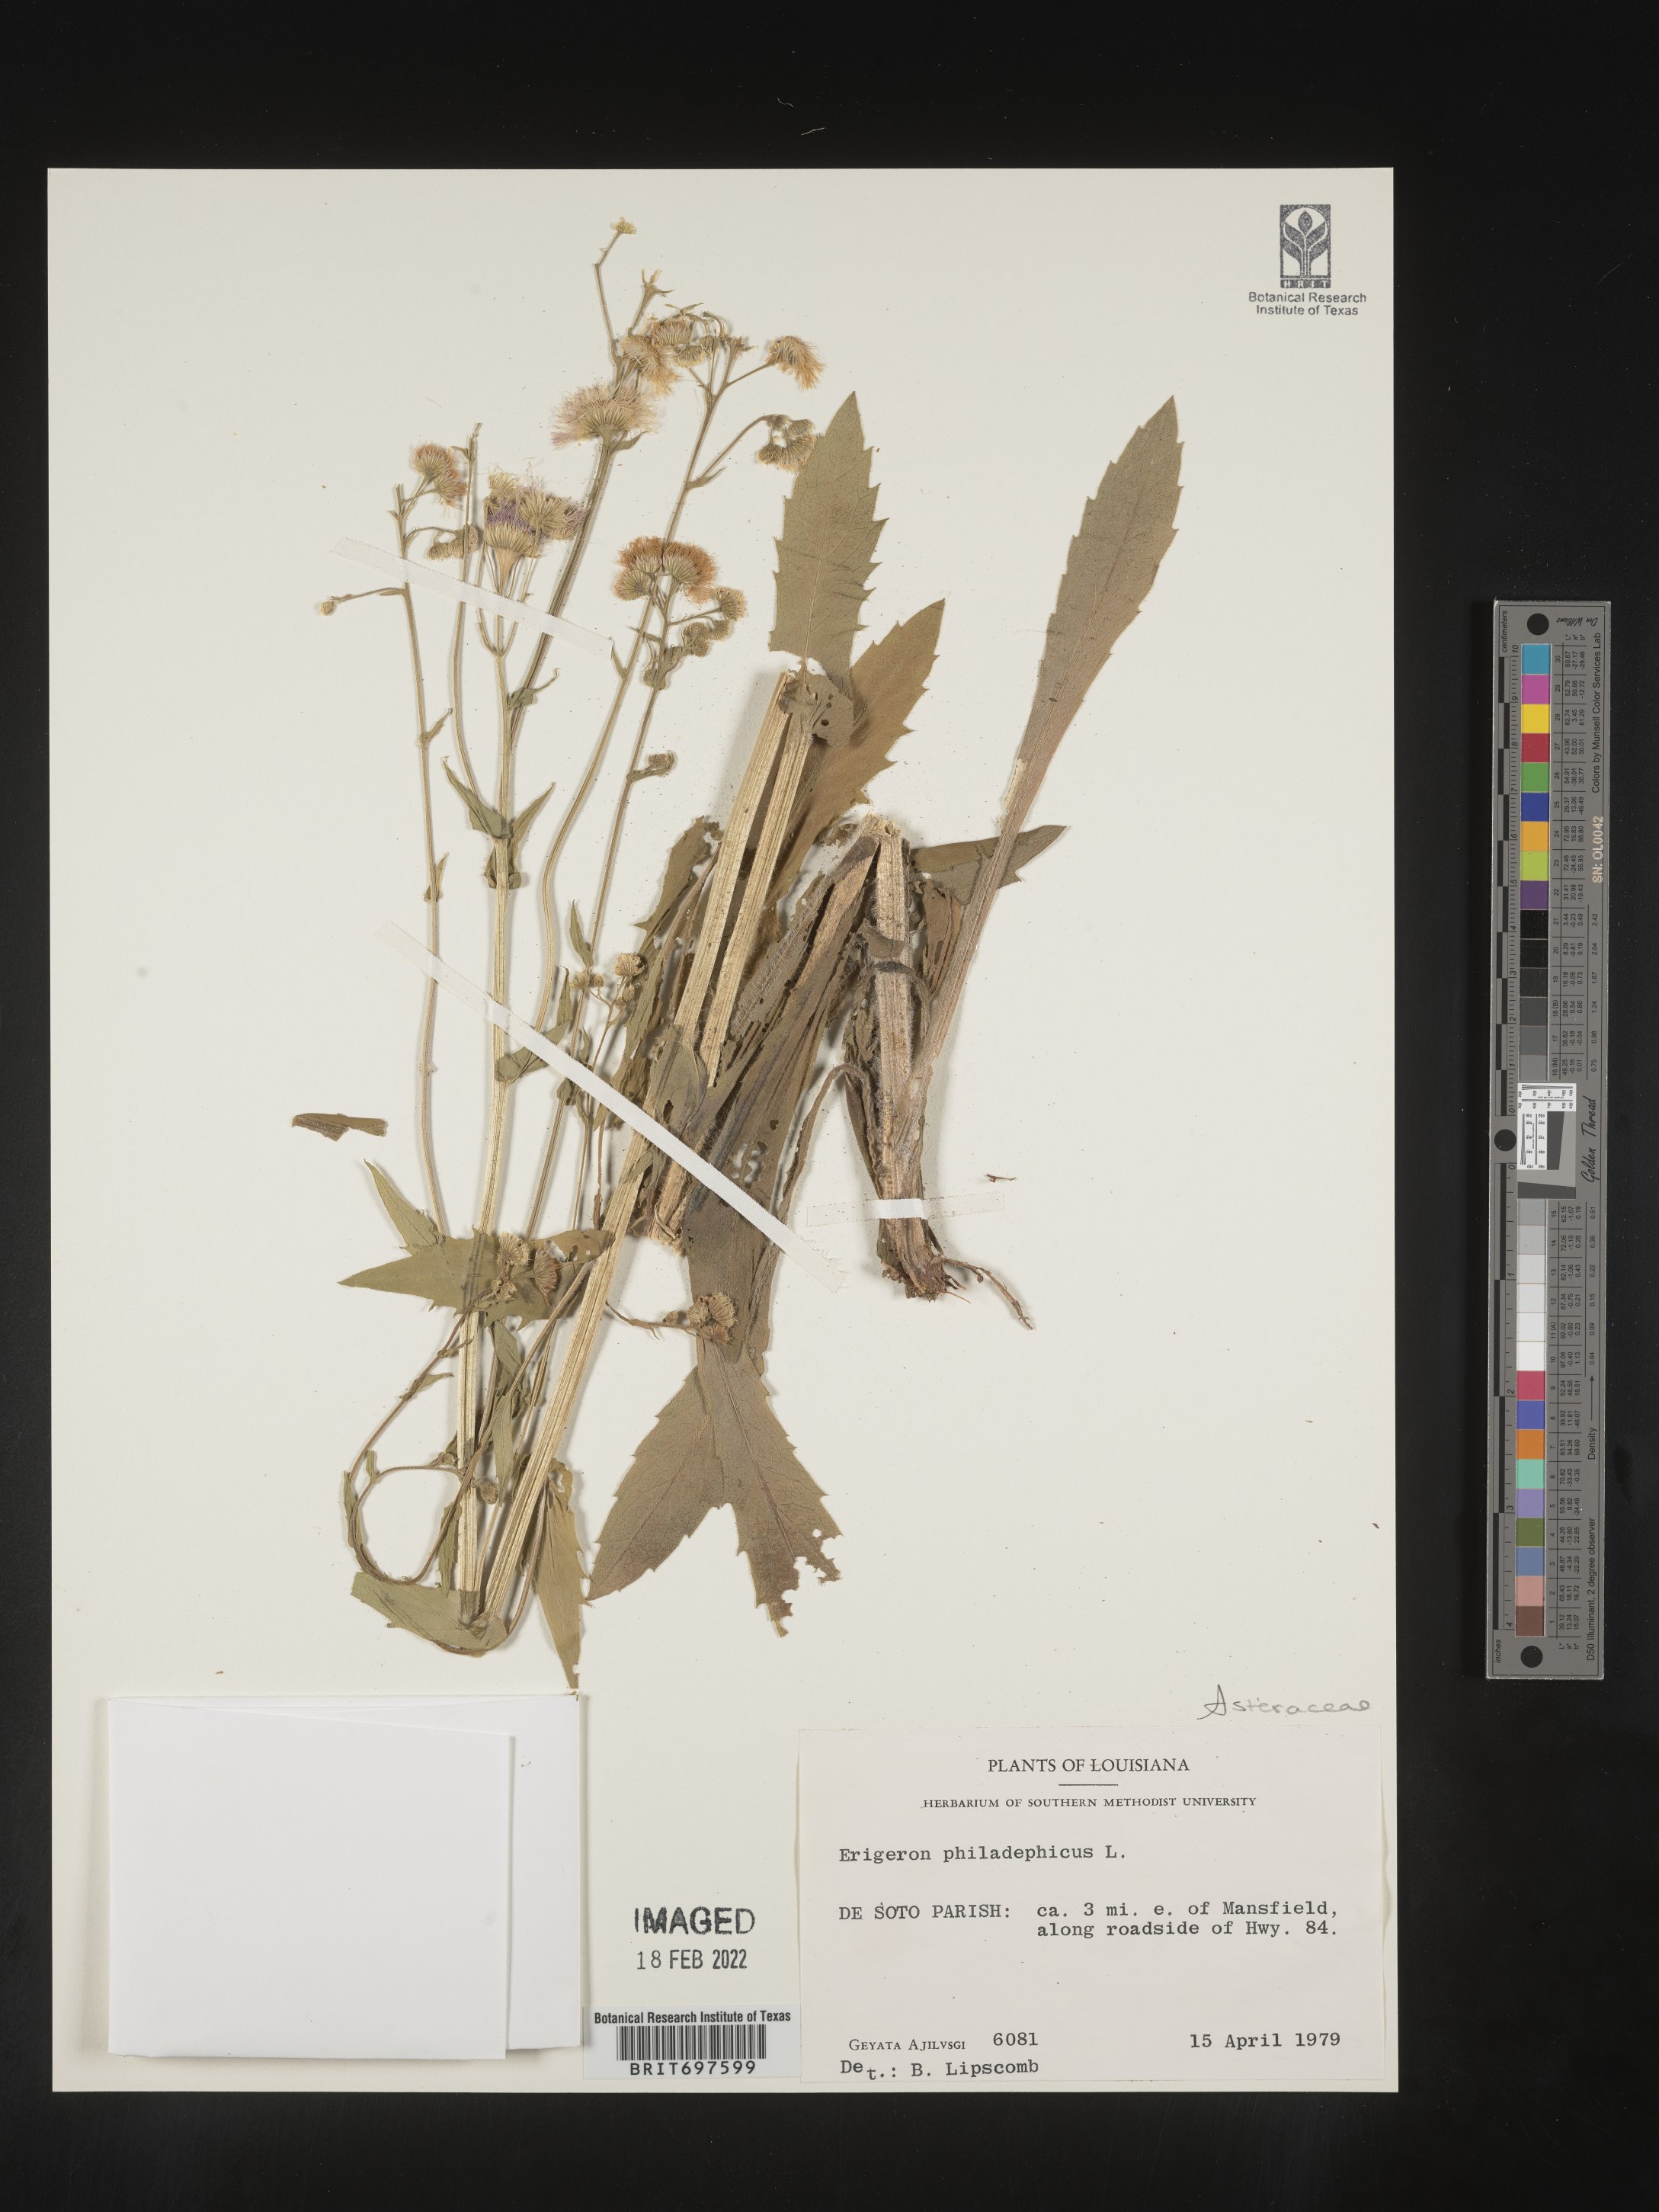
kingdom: Plantae
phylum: Tracheophyta
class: Magnoliopsida
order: Asterales
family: Asteraceae
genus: Erigeron
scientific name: Erigeron philadelphicus
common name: Robin's-plantain
